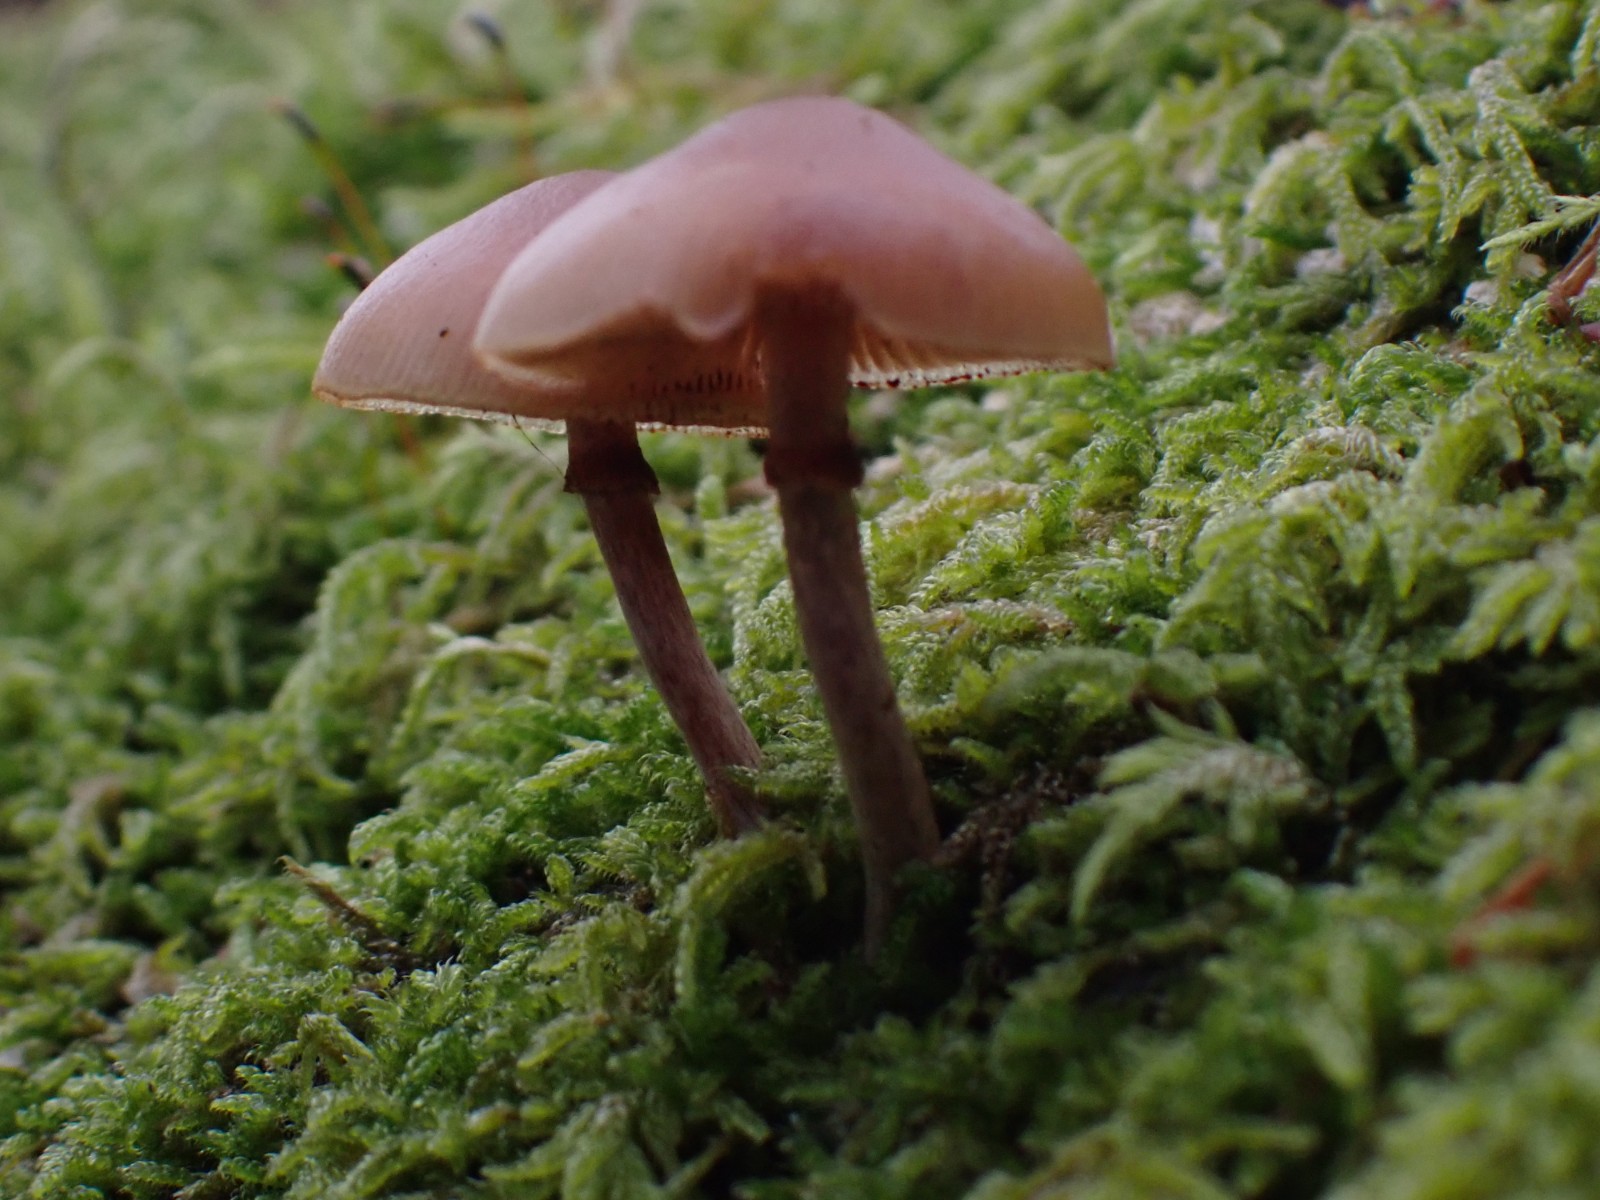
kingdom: Fungi
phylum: Basidiomycota
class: Agaricomycetes
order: Agaricales
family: Hymenogastraceae
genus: Galerina
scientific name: Galerina marginata
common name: randbæltet hjelmhat
